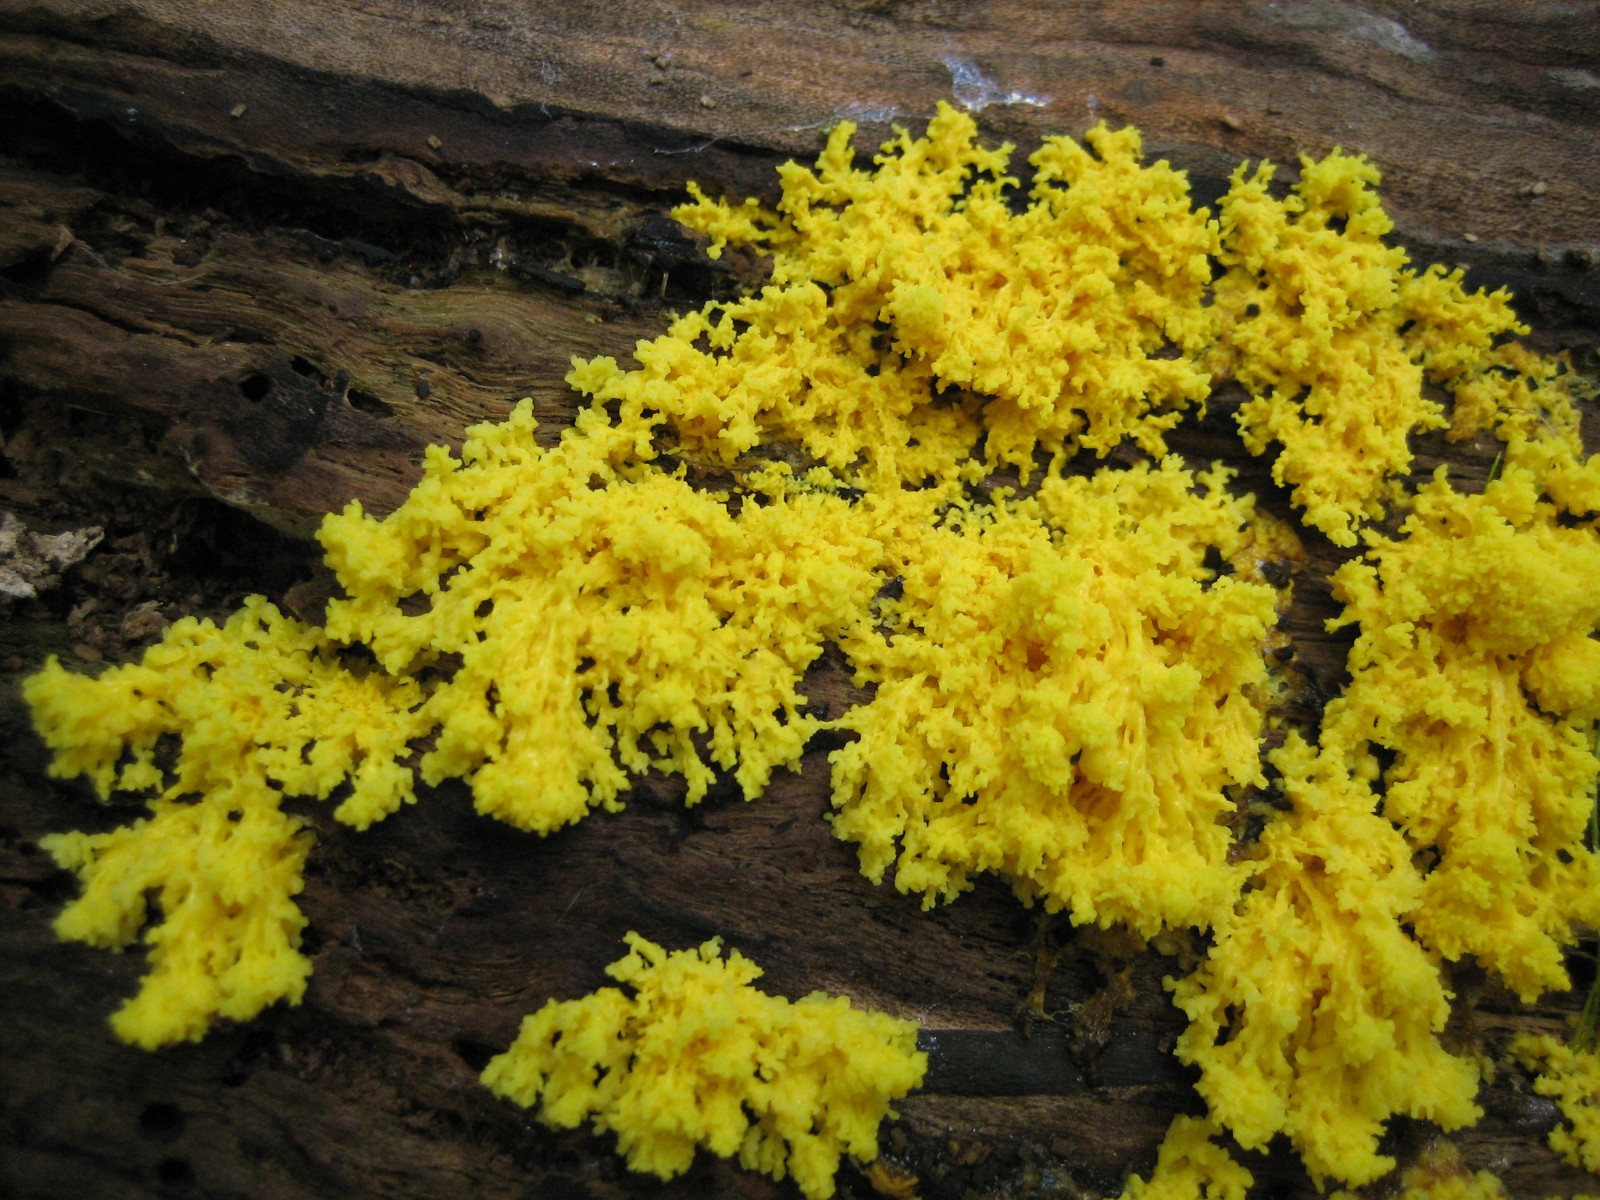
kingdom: Protozoa
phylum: Mycetozoa
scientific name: Mycetozoa
